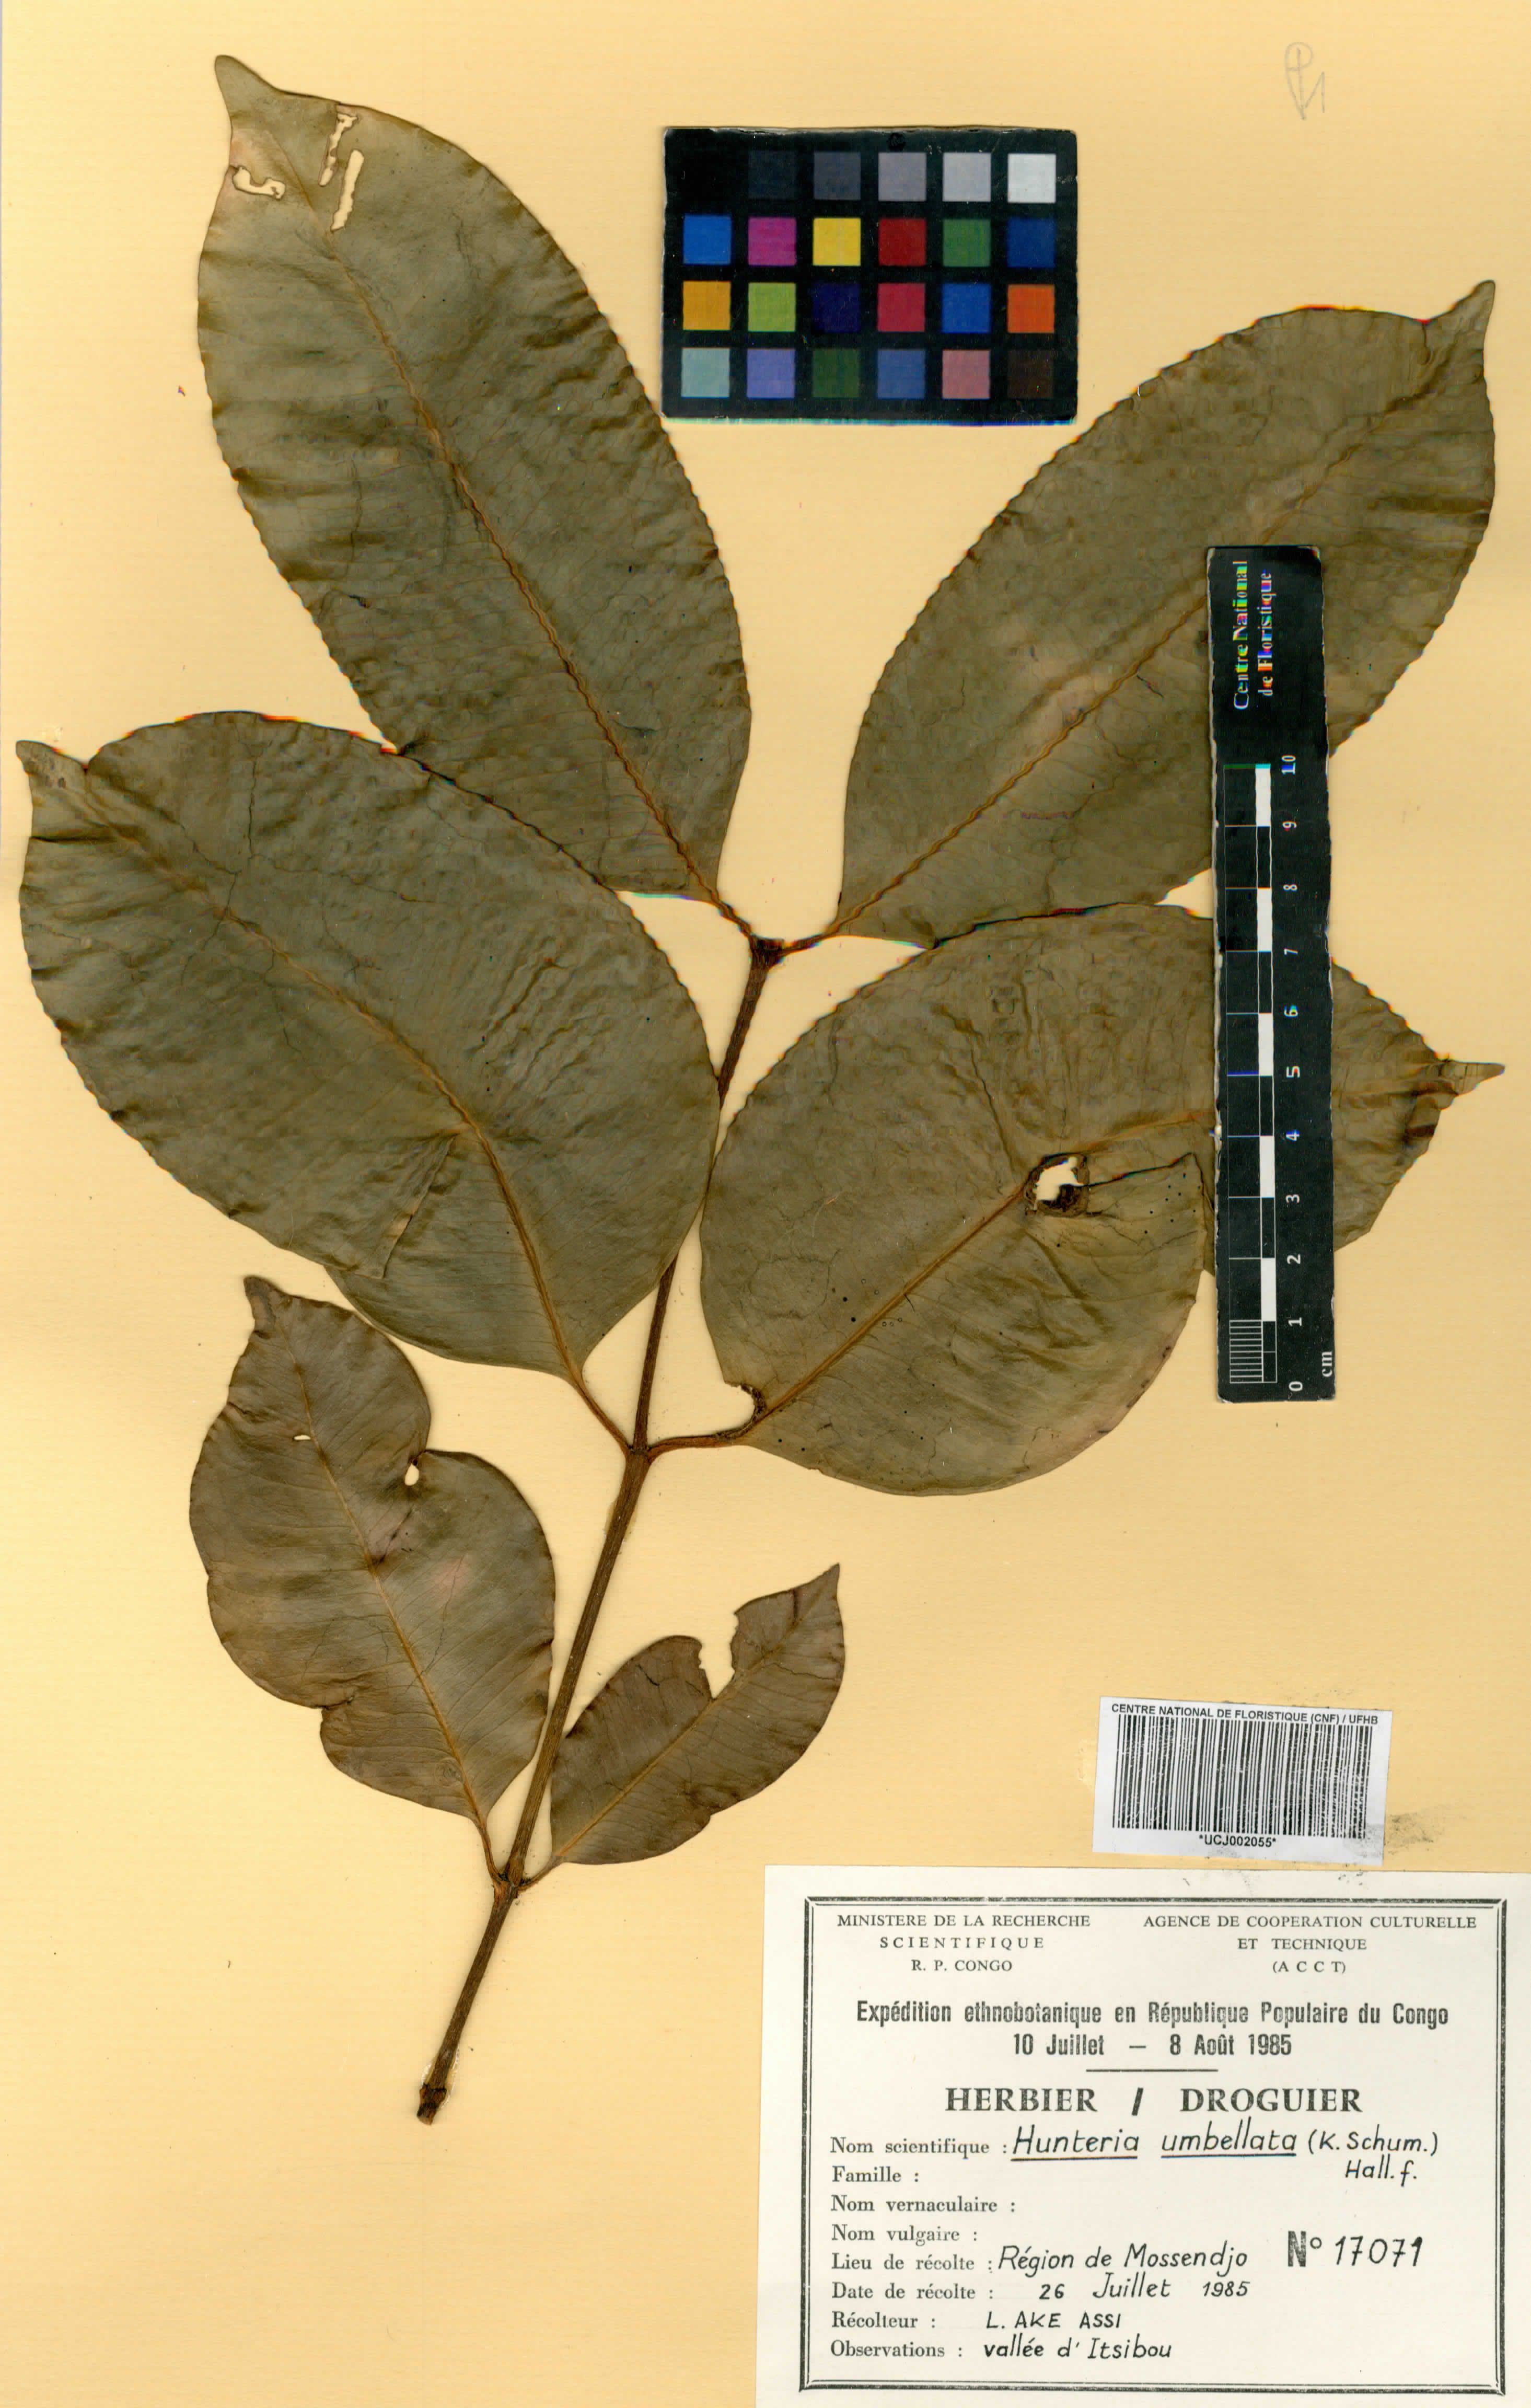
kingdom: Plantae
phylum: Tracheophyta
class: Magnoliopsida
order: Gentianales
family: Apocynaceae
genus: Hunteria
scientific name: Hunteria umbellata
